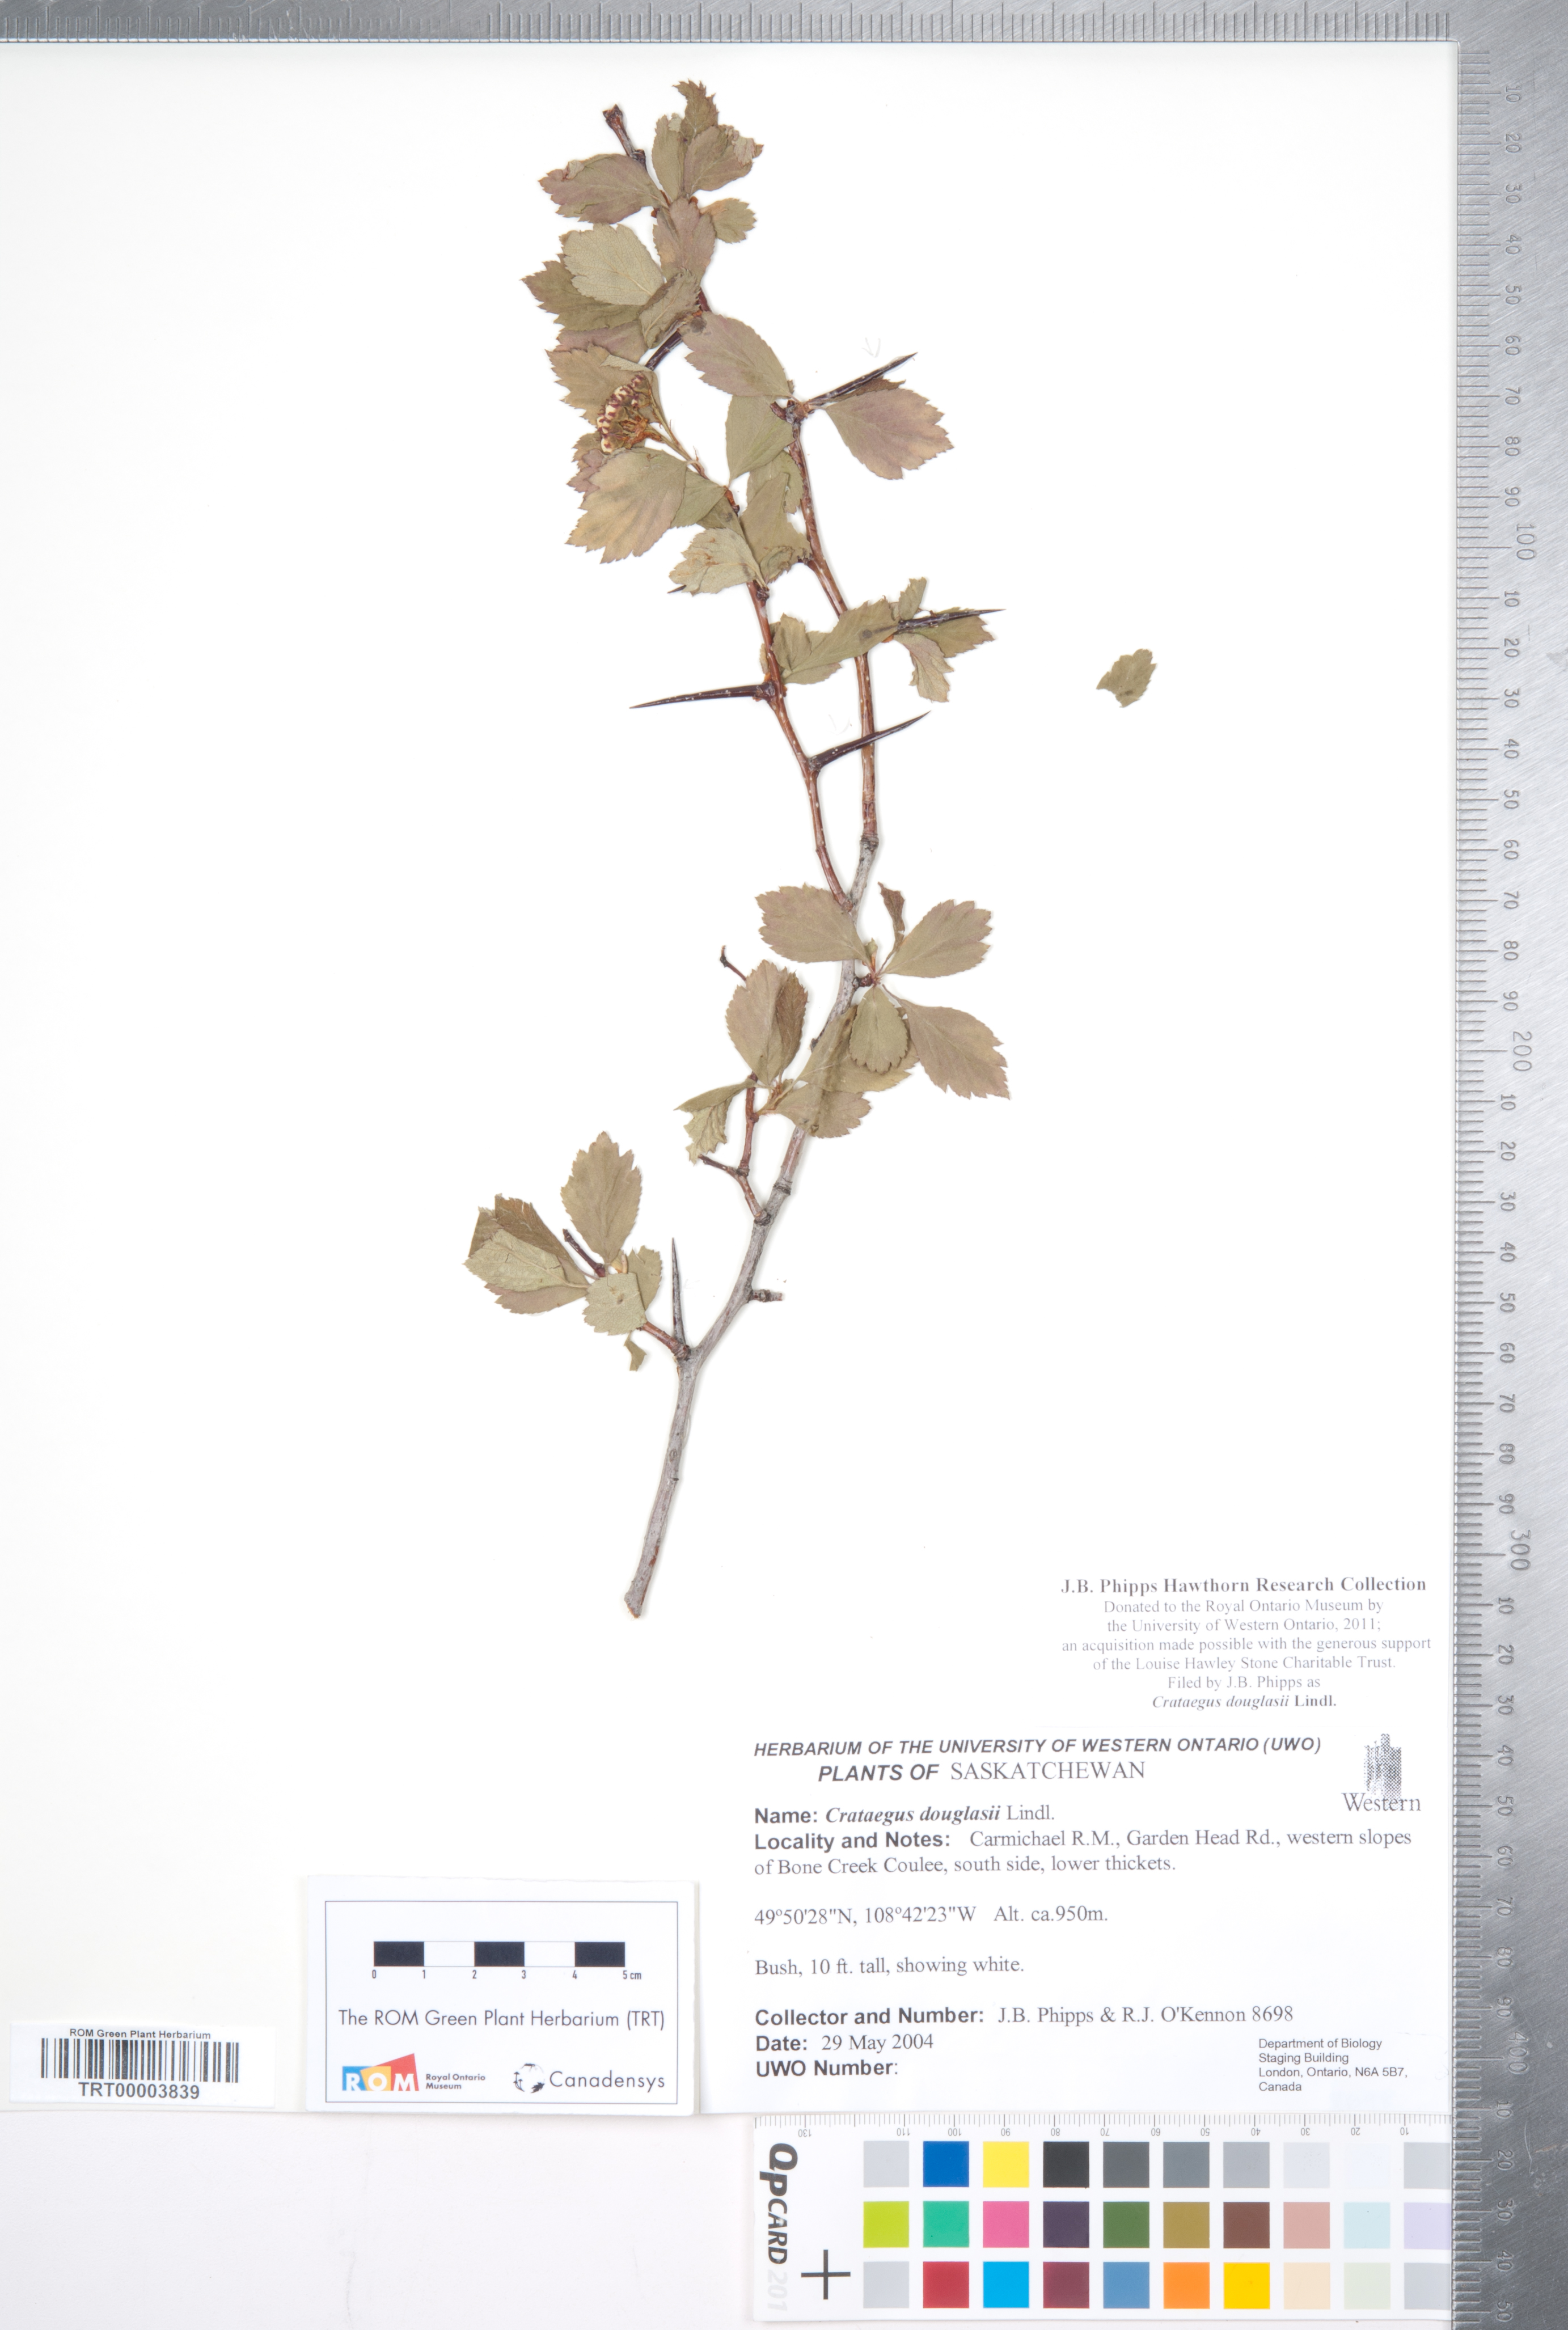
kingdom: Plantae
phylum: Tracheophyta
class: Magnoliopsida
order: Rosales
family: Rosaceae
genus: Crataegus
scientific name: Crataegus douglasii
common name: Black hawthorn
